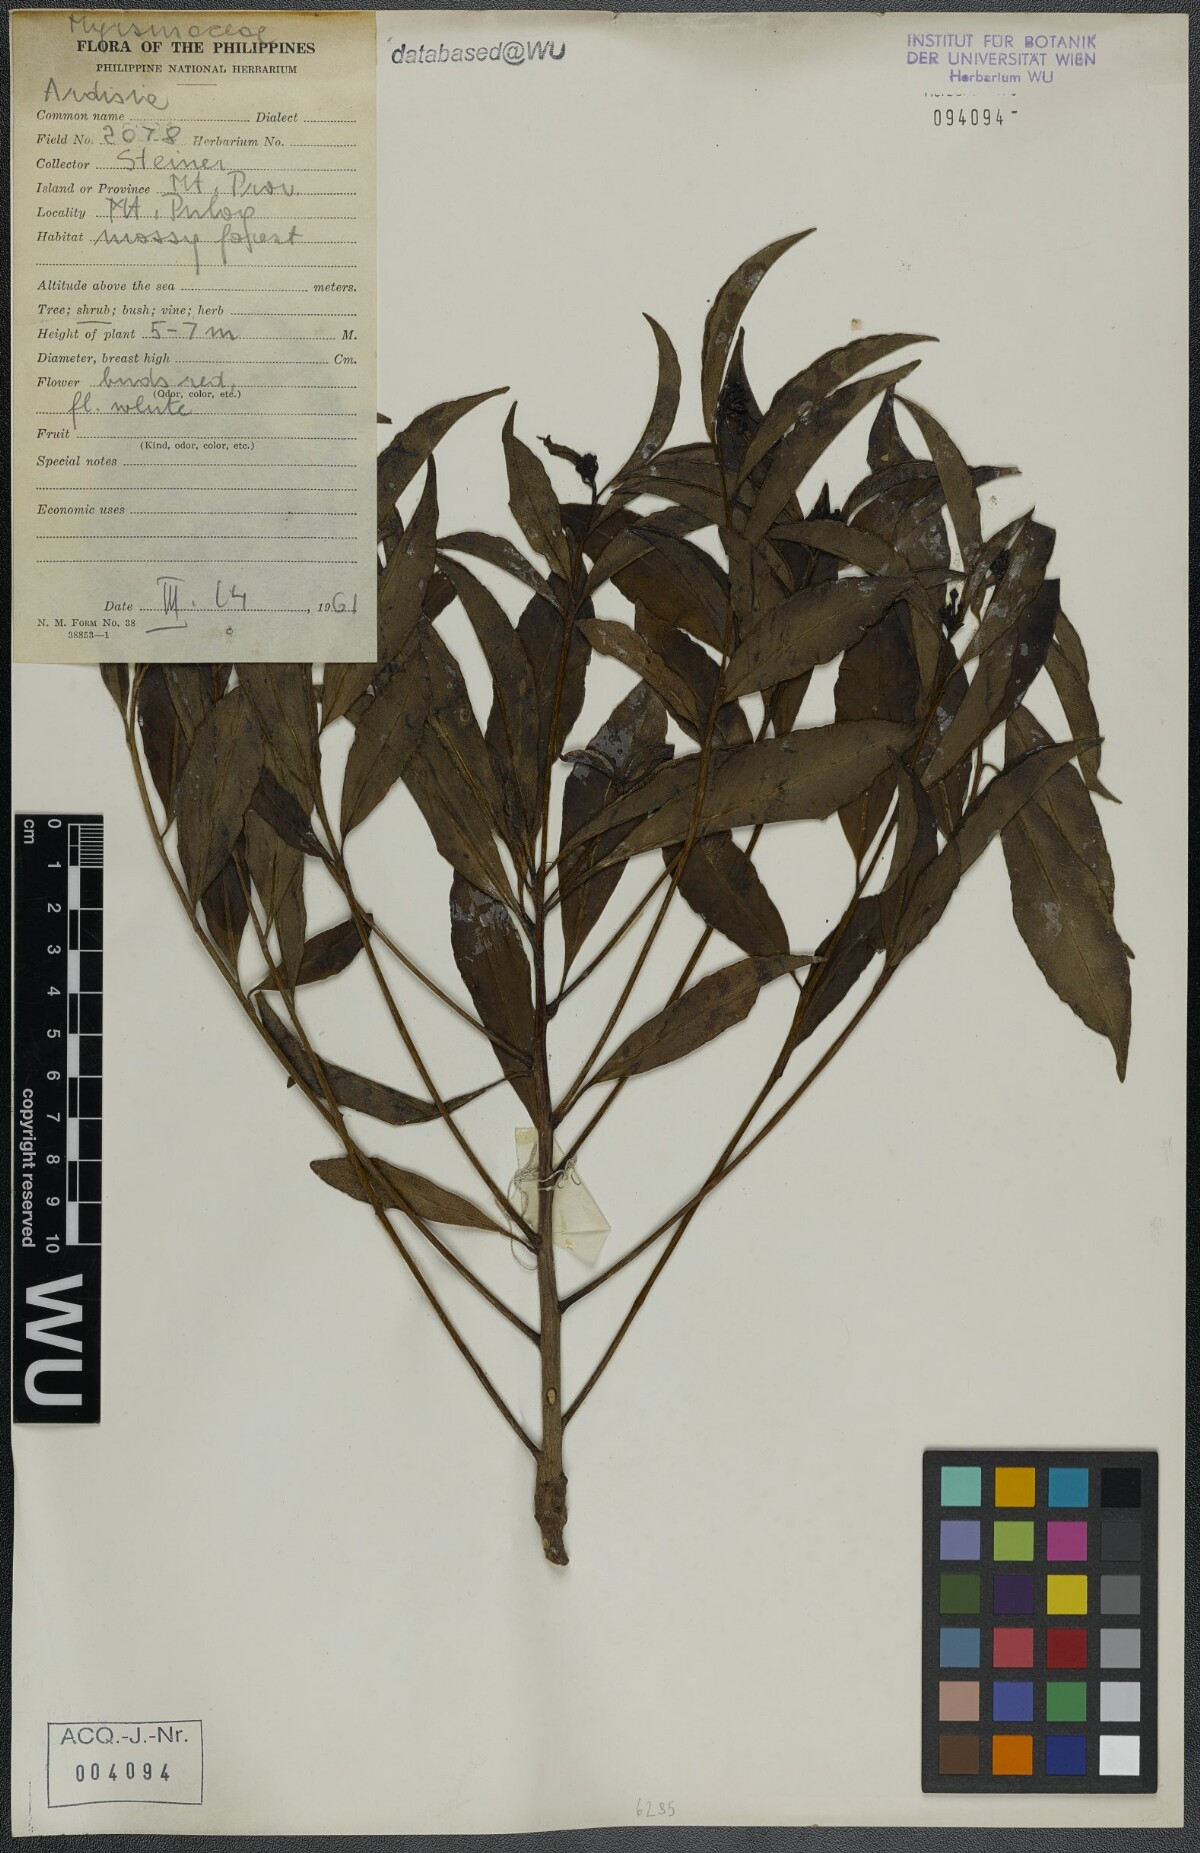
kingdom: Plantae
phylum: Tracheophyta
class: Magnoliopsida
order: Ericales
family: Primulaceae
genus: Ardisia
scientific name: Ardisia
